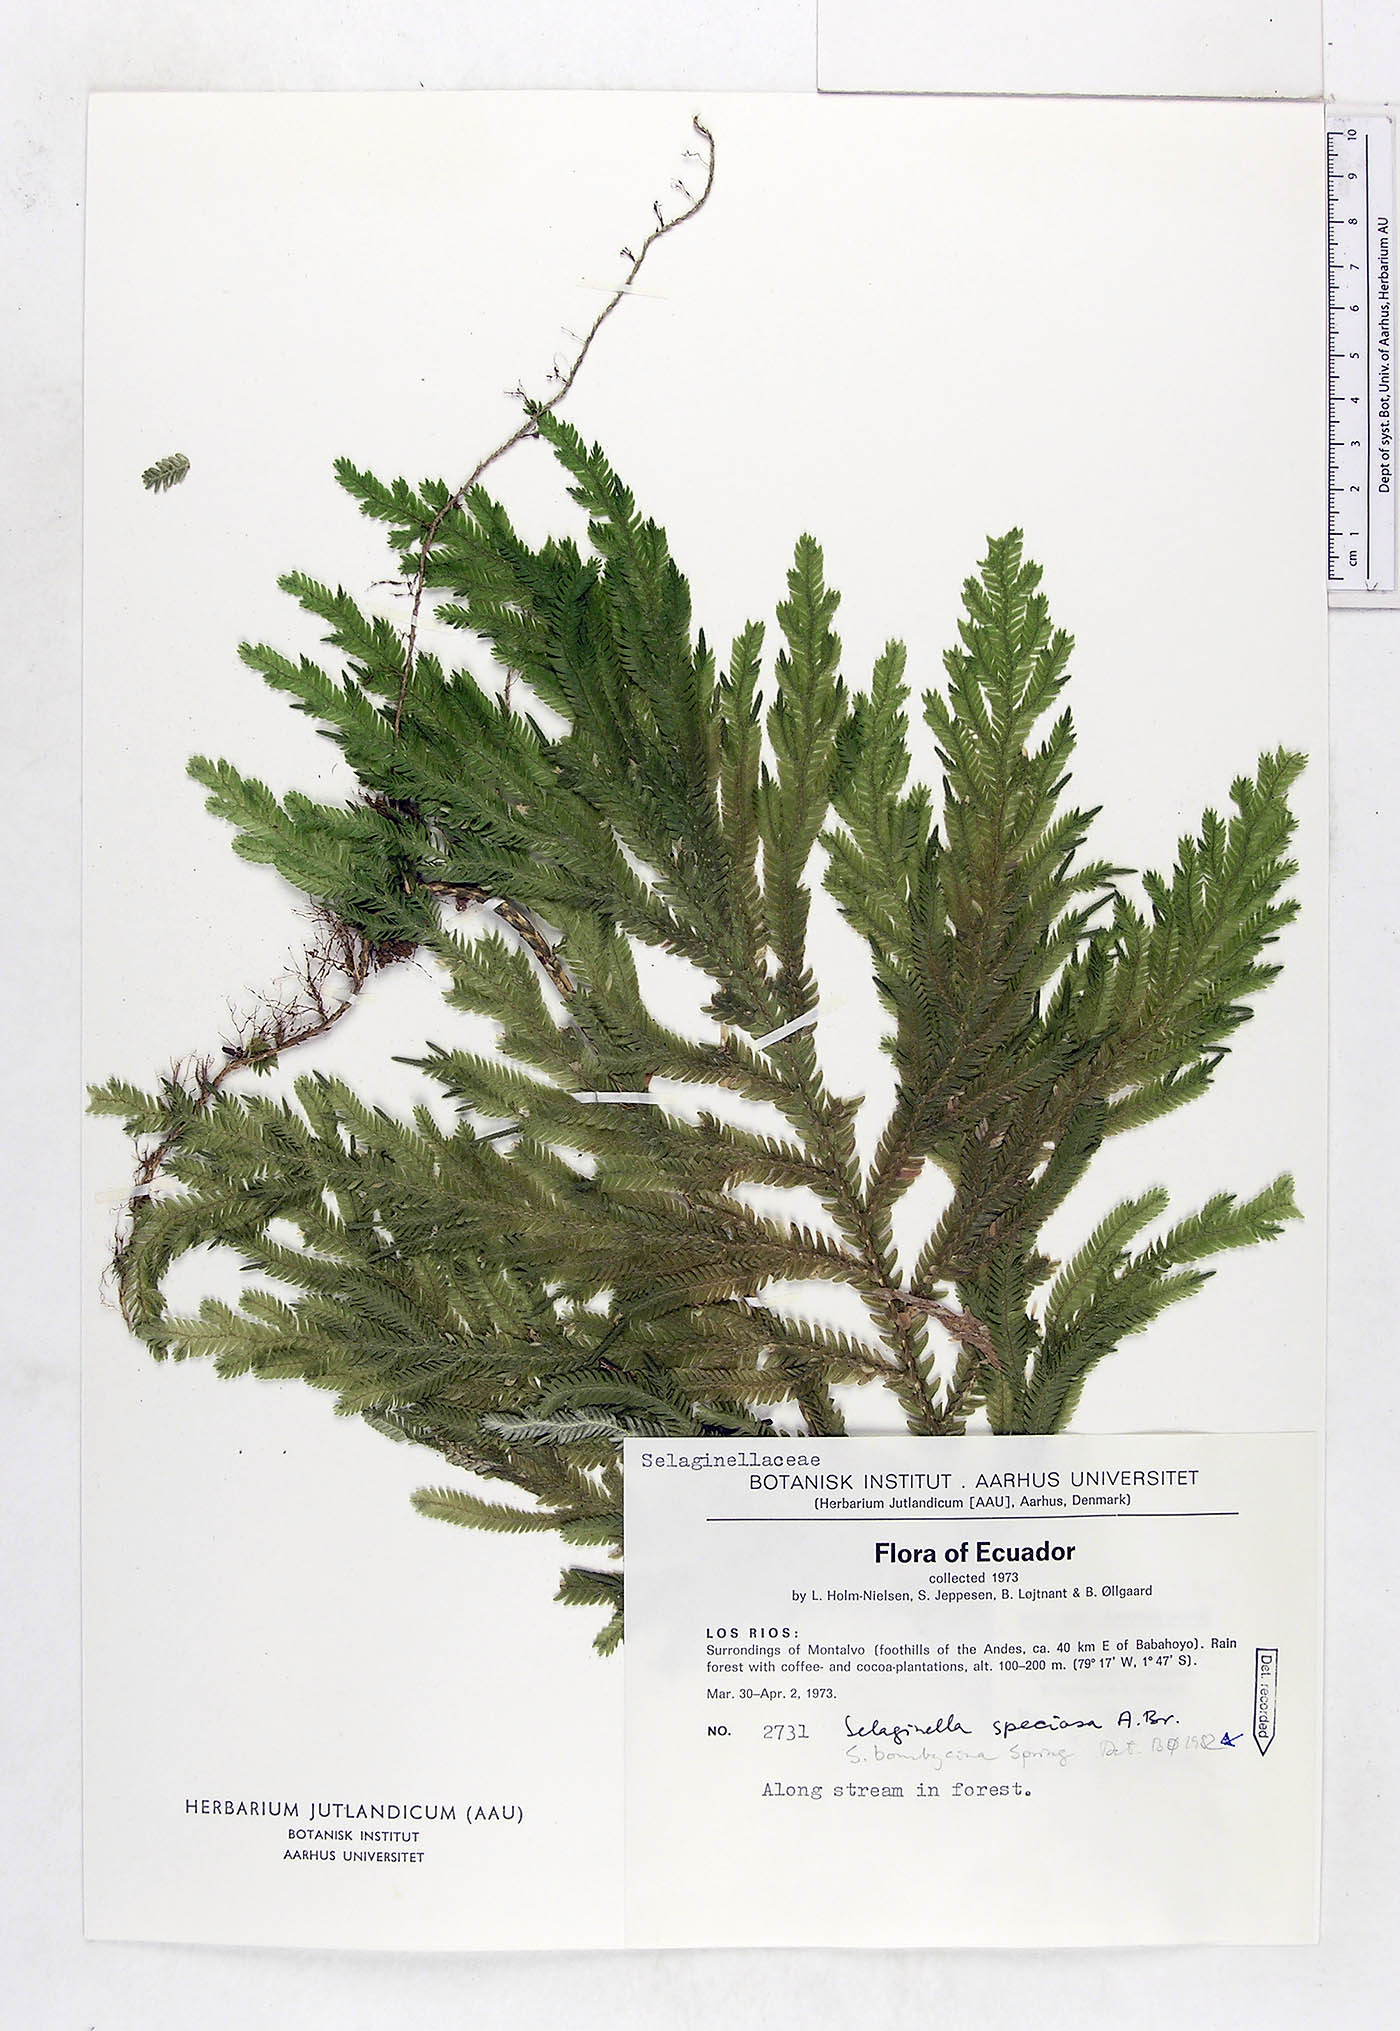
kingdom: Plantae
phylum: Tracheophyta
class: Lycopodiopsida
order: Selaginellales
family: Selaginellaceae
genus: Selaginella
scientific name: Selaginella bombycina
